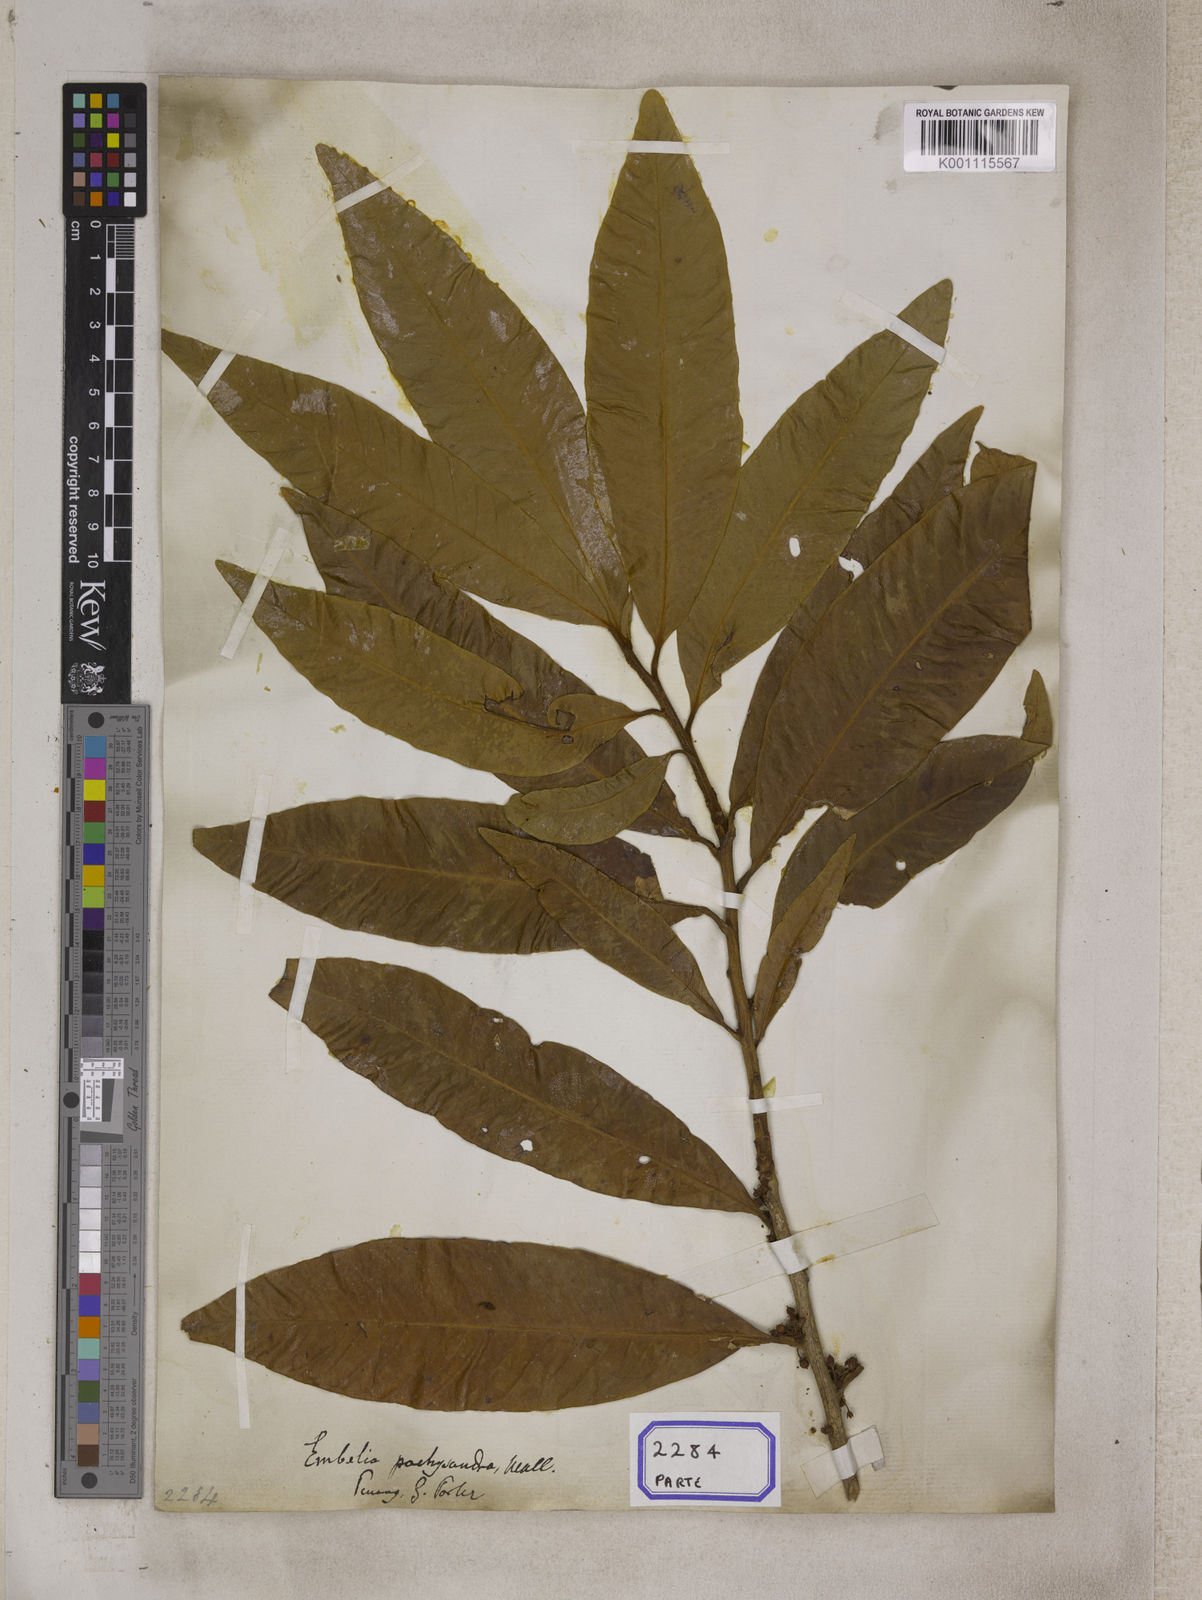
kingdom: Plantae
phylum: Tracheophyta
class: Magnoliopsida
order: Ericales
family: Primulaceae
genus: Ardisia
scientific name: Ardisia pachysandra
